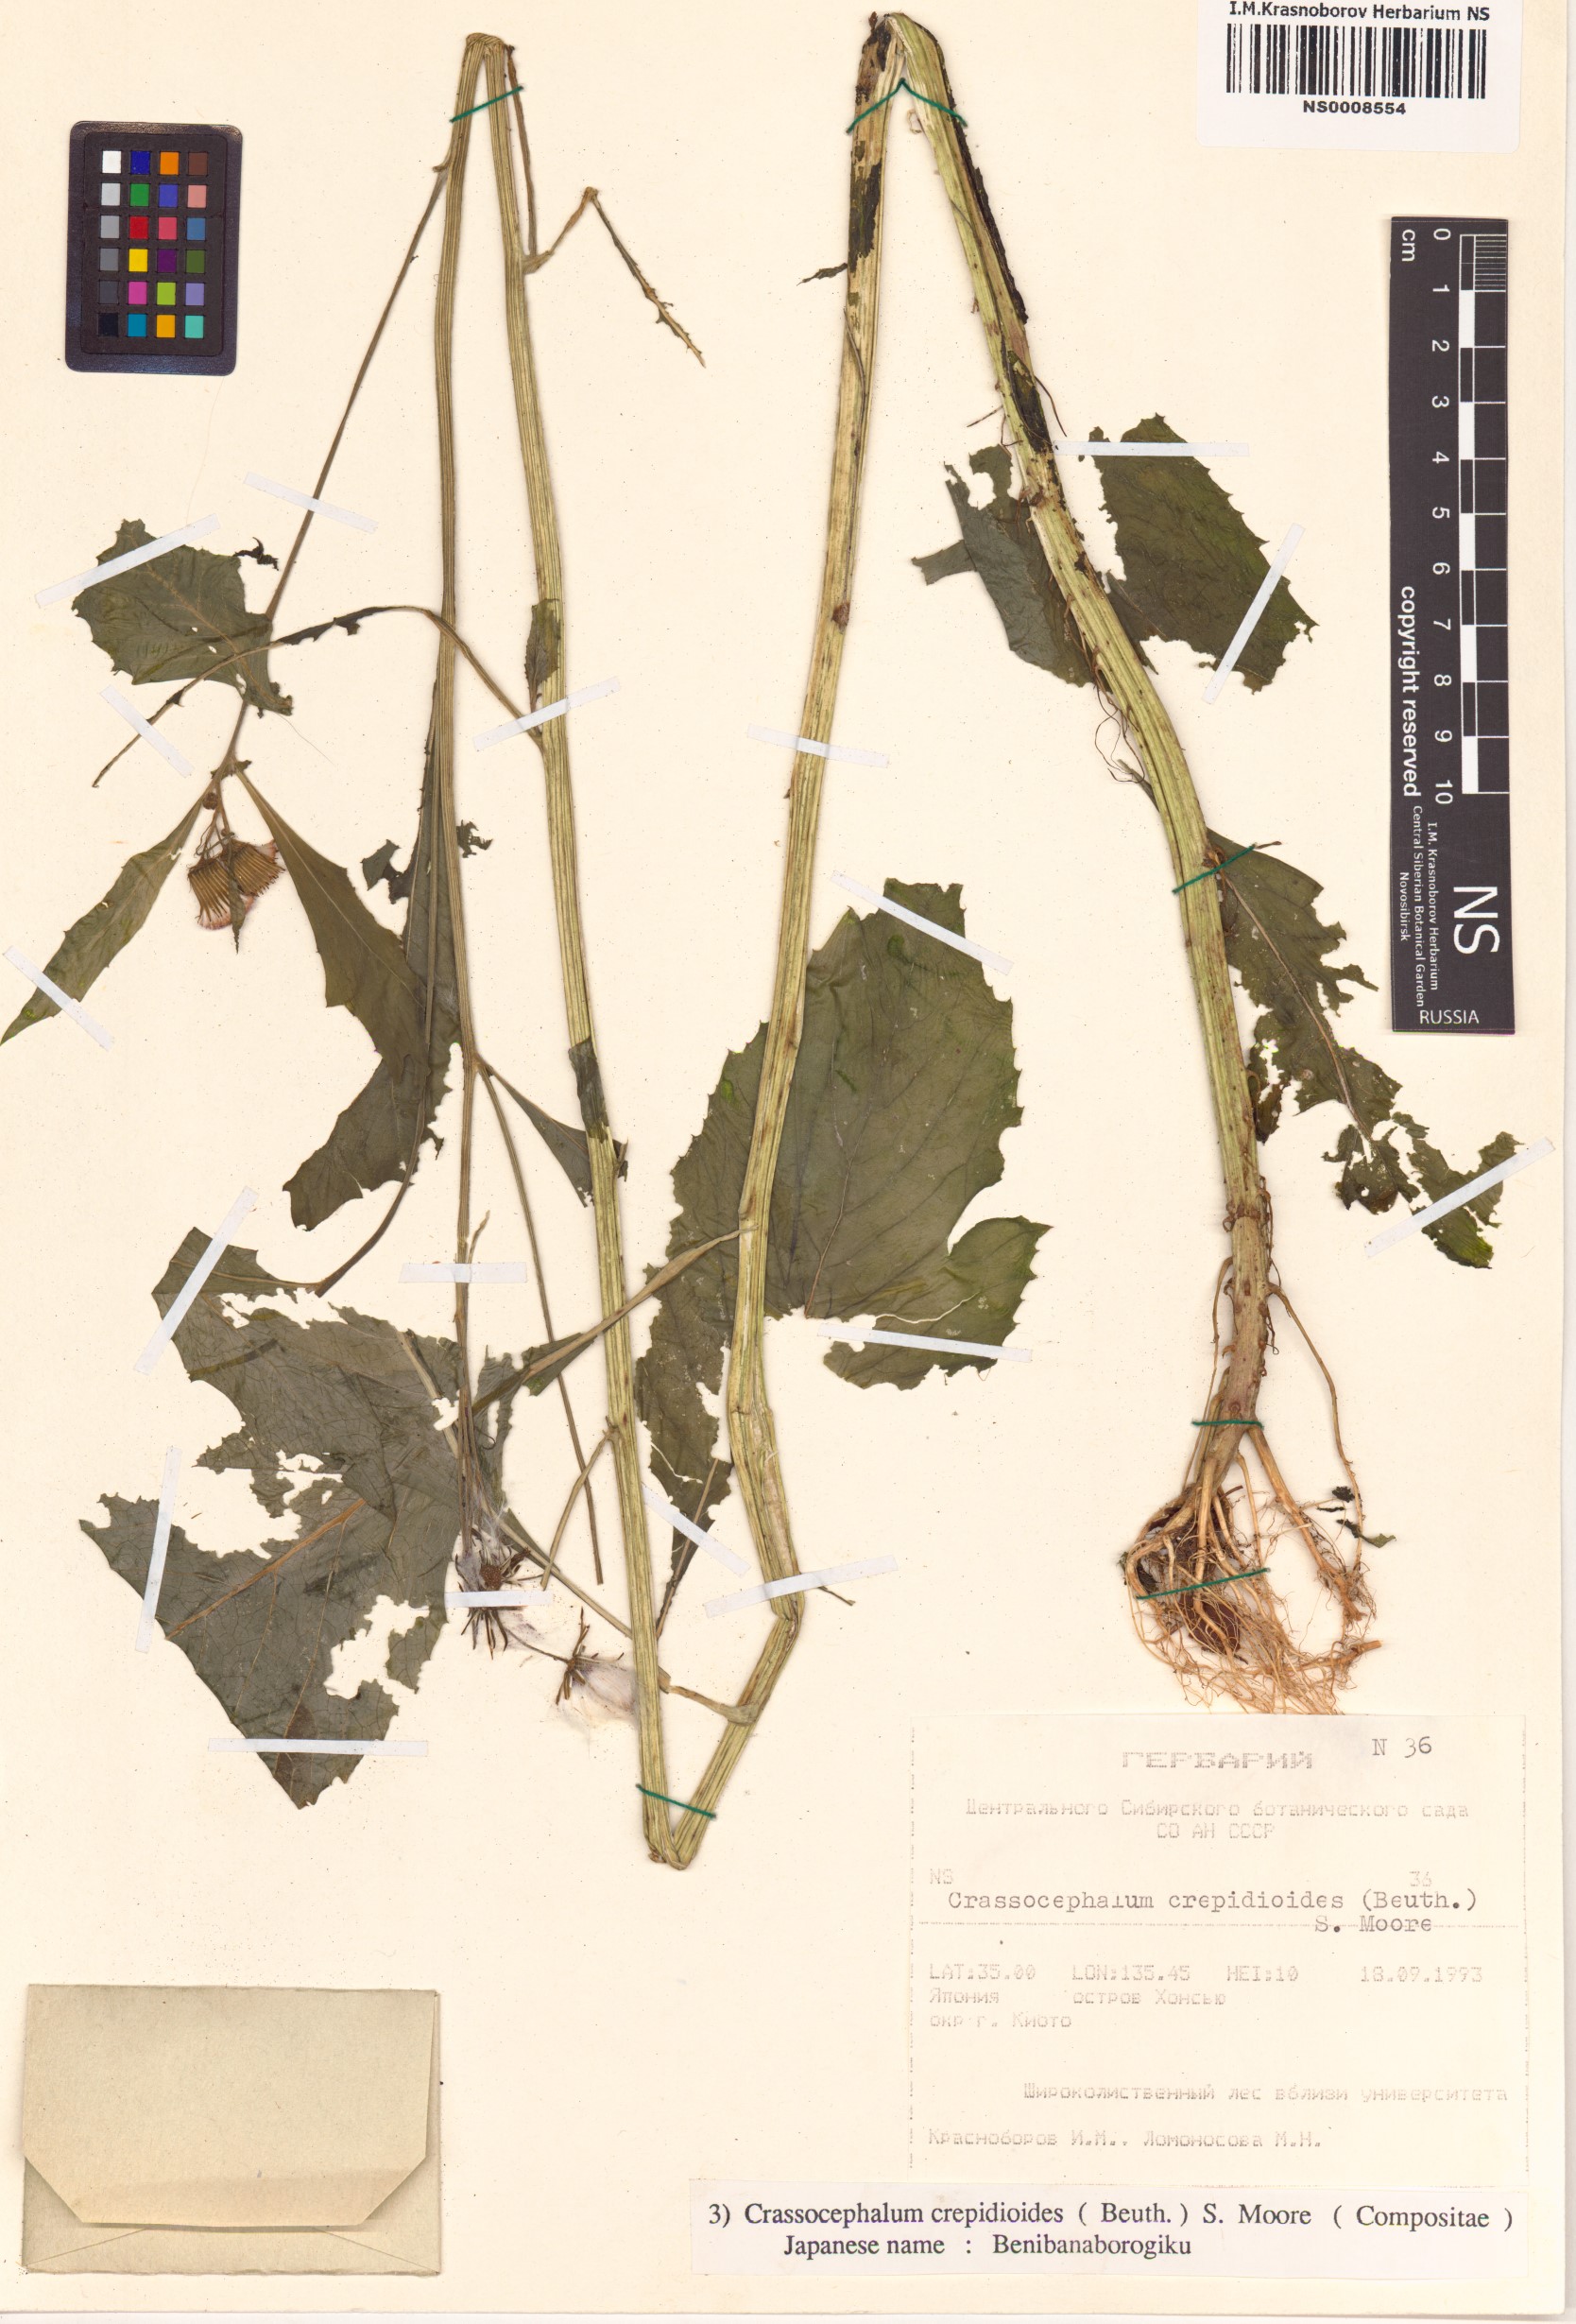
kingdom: Plantae
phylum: Tracheophyta
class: Magnoliopsida
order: Asterales
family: Asteraceae
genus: Crassocephalum
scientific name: Crassocephalum crepidioides
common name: Redflower ragleaf
